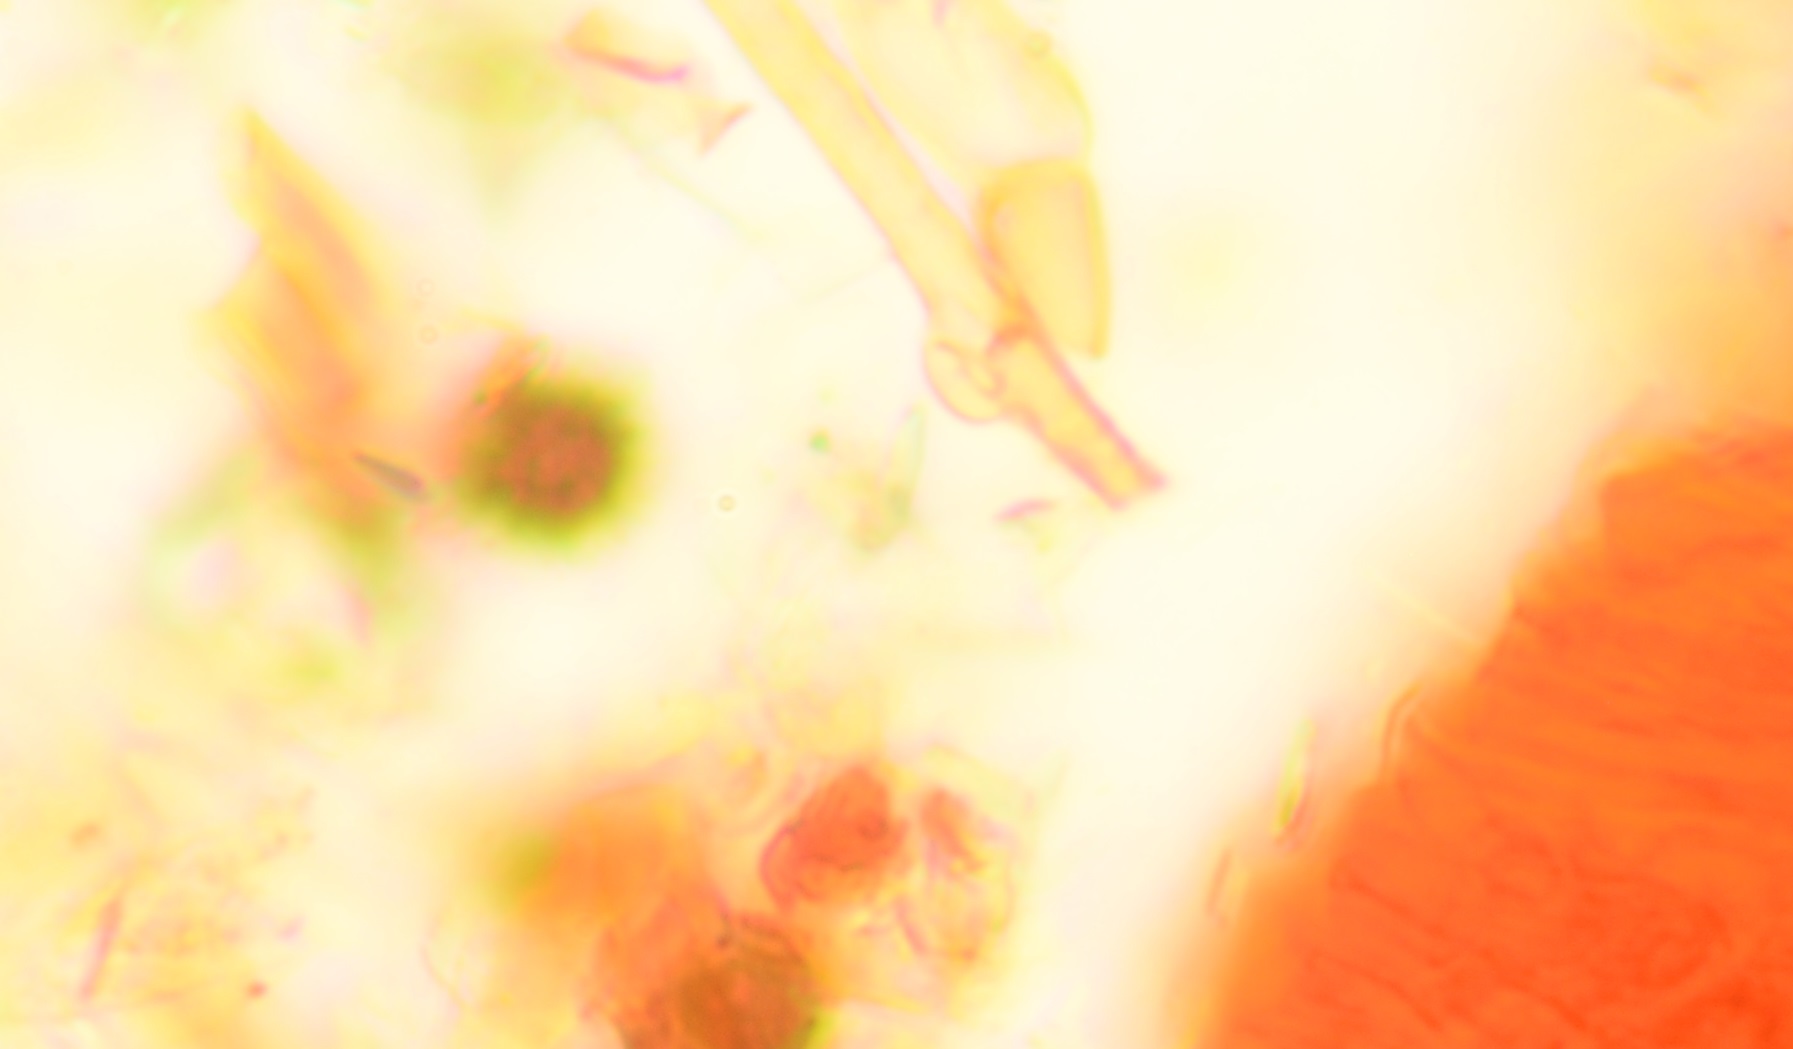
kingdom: Fungi
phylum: Basidiomycota
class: Agaricomycetes
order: Boletales
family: Sclerodermataceae
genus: Scleroderma
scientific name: Scleroderma bovista
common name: bovist-bruskbold
